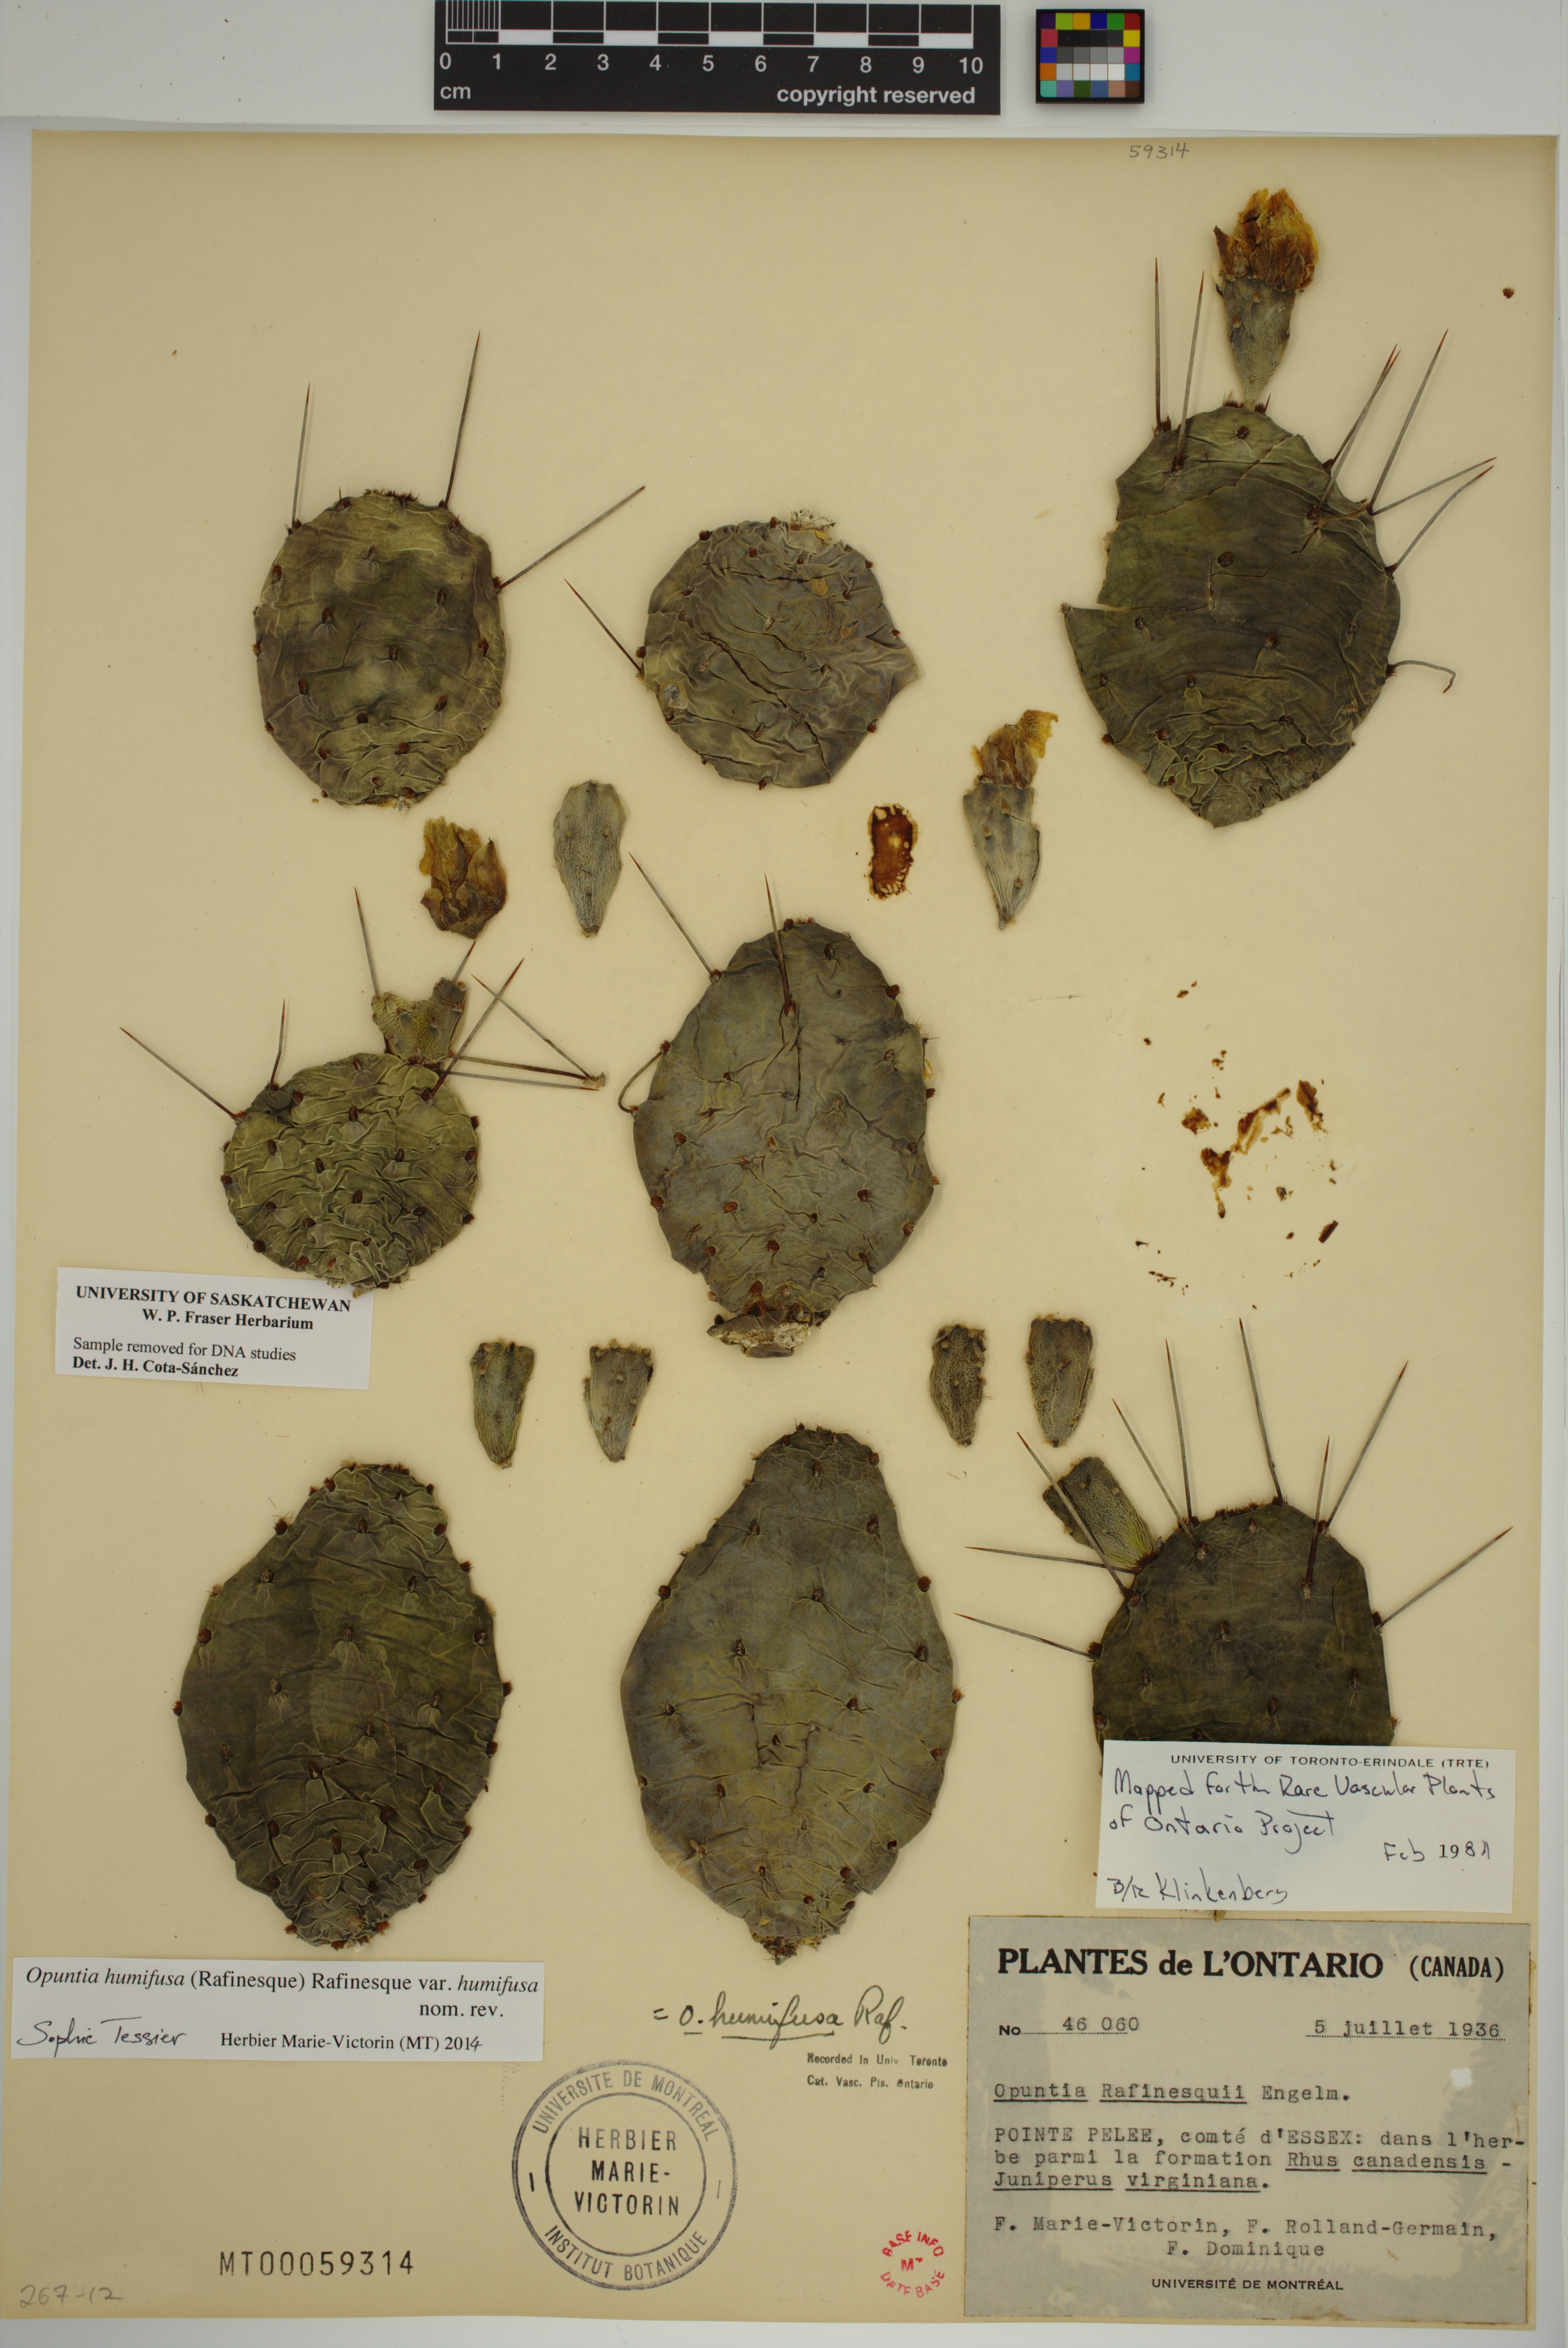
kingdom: Plantae
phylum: Tracheophyta
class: Magnoliopsida
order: Caryophyllales
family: Cactaceae
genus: Opuntia
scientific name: Opuntia humifusa
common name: Eastern prickly-pear
